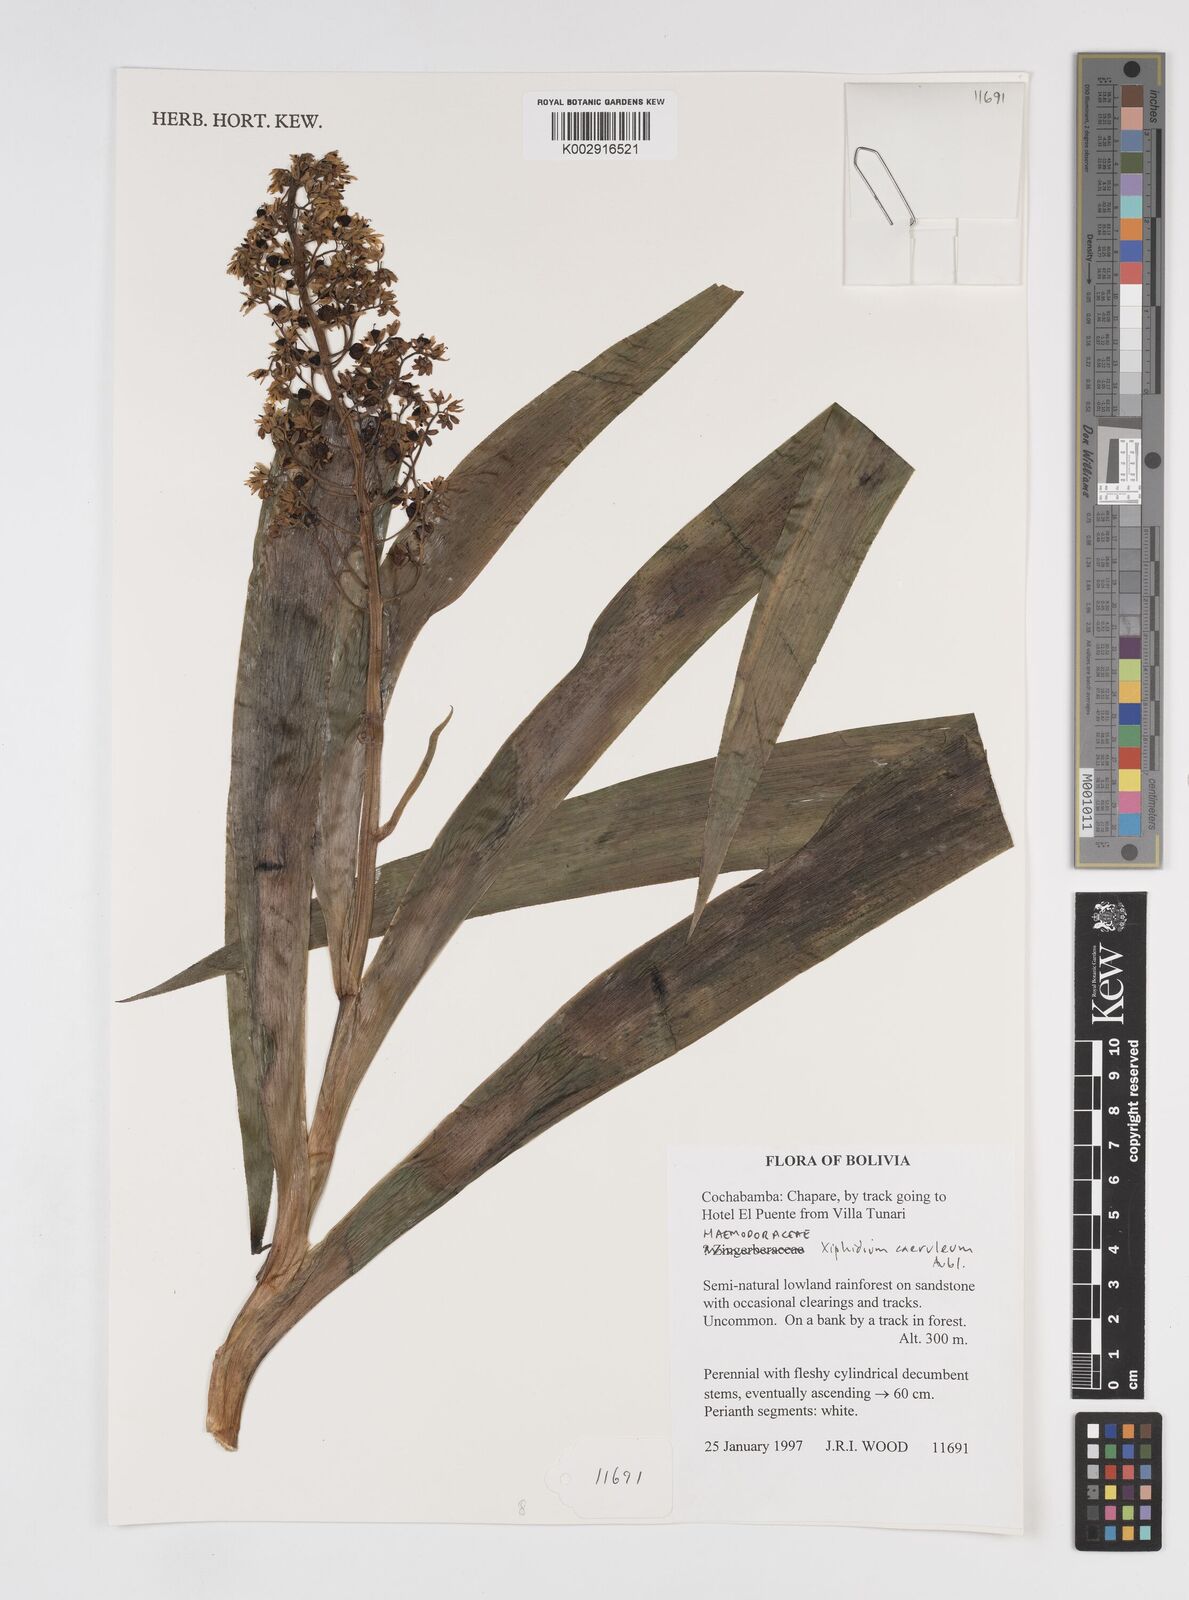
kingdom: Plantae
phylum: Tracheophyta
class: Liliopsida
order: Commelinales
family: Haemodoraceae
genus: Xiphidium
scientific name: Xiphidium caeruleum
